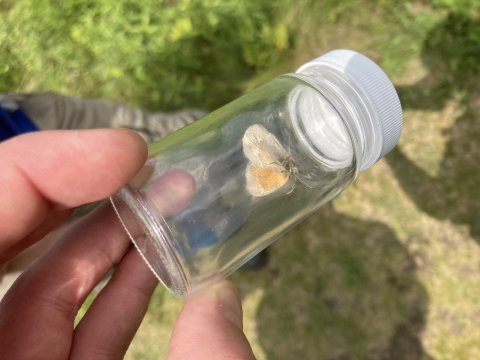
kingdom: Animalia
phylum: Arthropoda
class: Insecta
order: Lepidoptera
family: Nymphalidae
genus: Coenonympha
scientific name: Coenonympha tullia
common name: Large Heath
